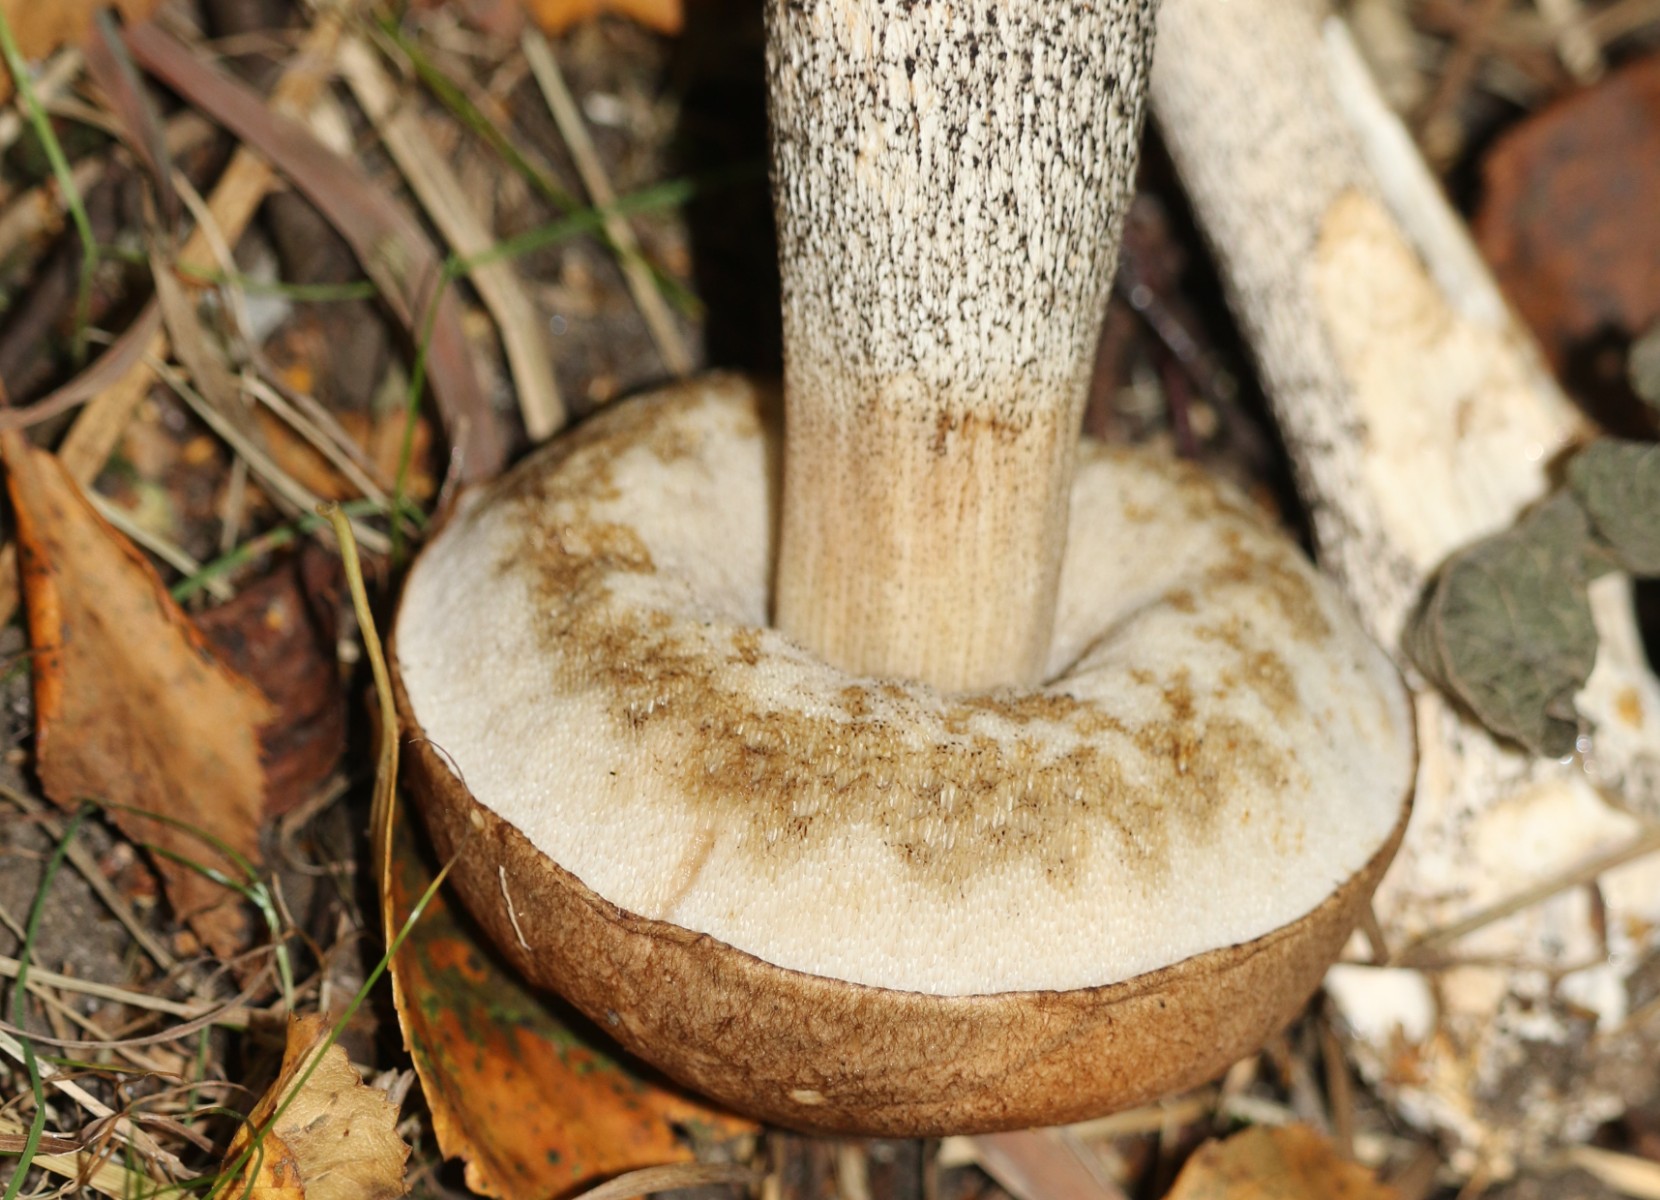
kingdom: Fungi
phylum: Basidiomycota
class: Agaricomycetes
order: Boletales
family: Boletaceae
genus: Leccinum
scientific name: Leccinum scabrum
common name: brun skælrørhat
